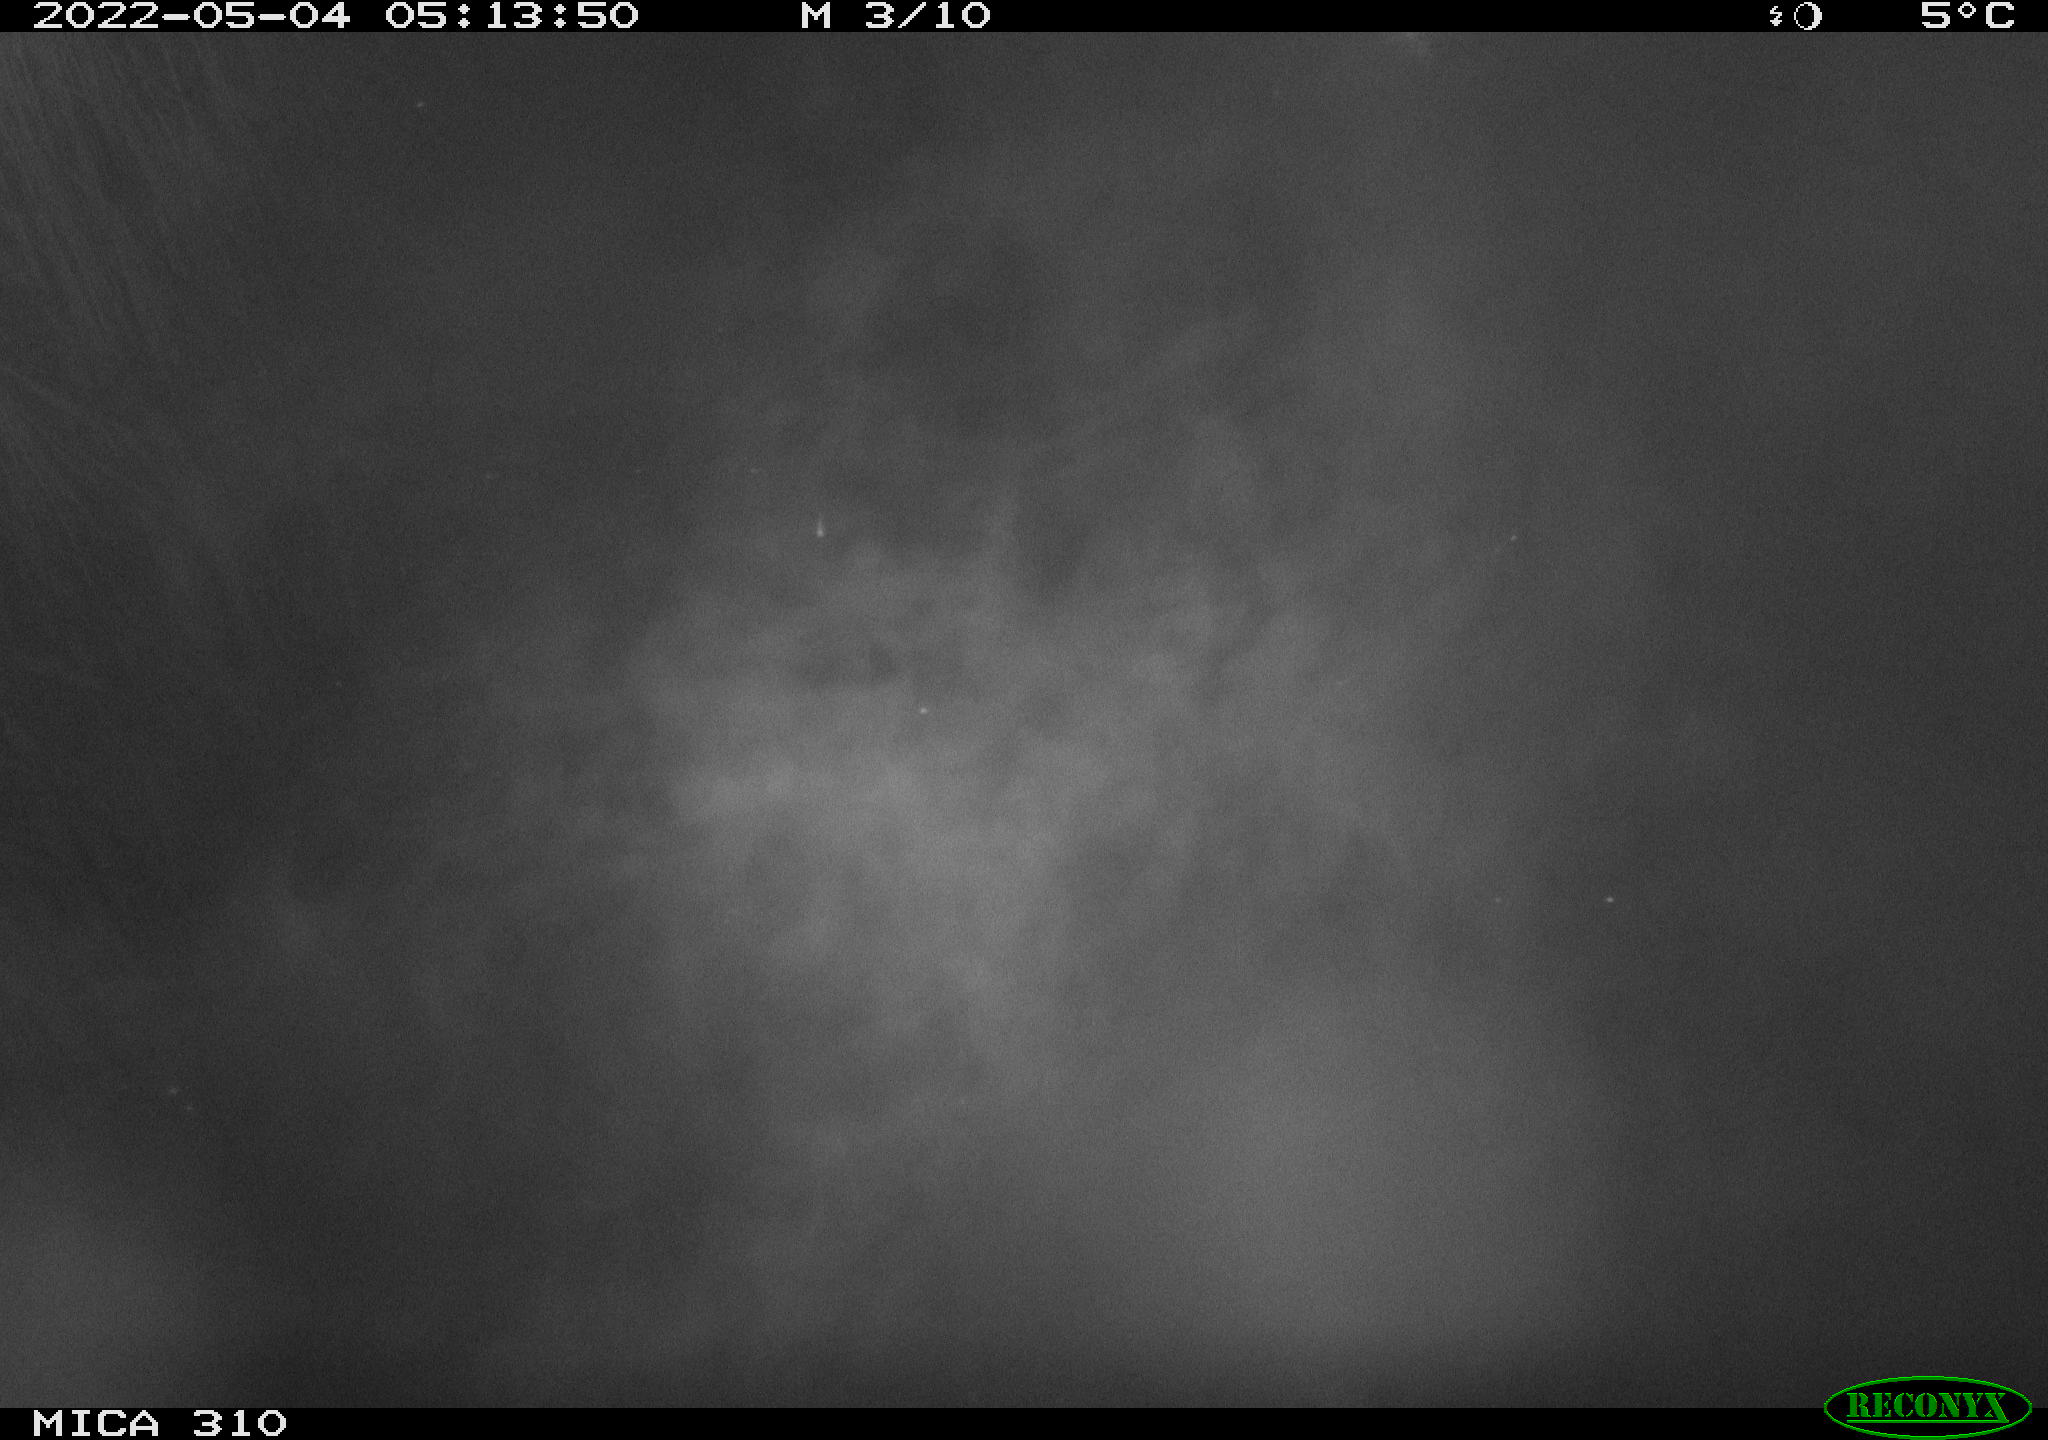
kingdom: Animalia
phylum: Chordata
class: Aves
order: Anseriformes
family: Anatidae
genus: Anas
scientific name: Anas platyrhynchos
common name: Mallard
